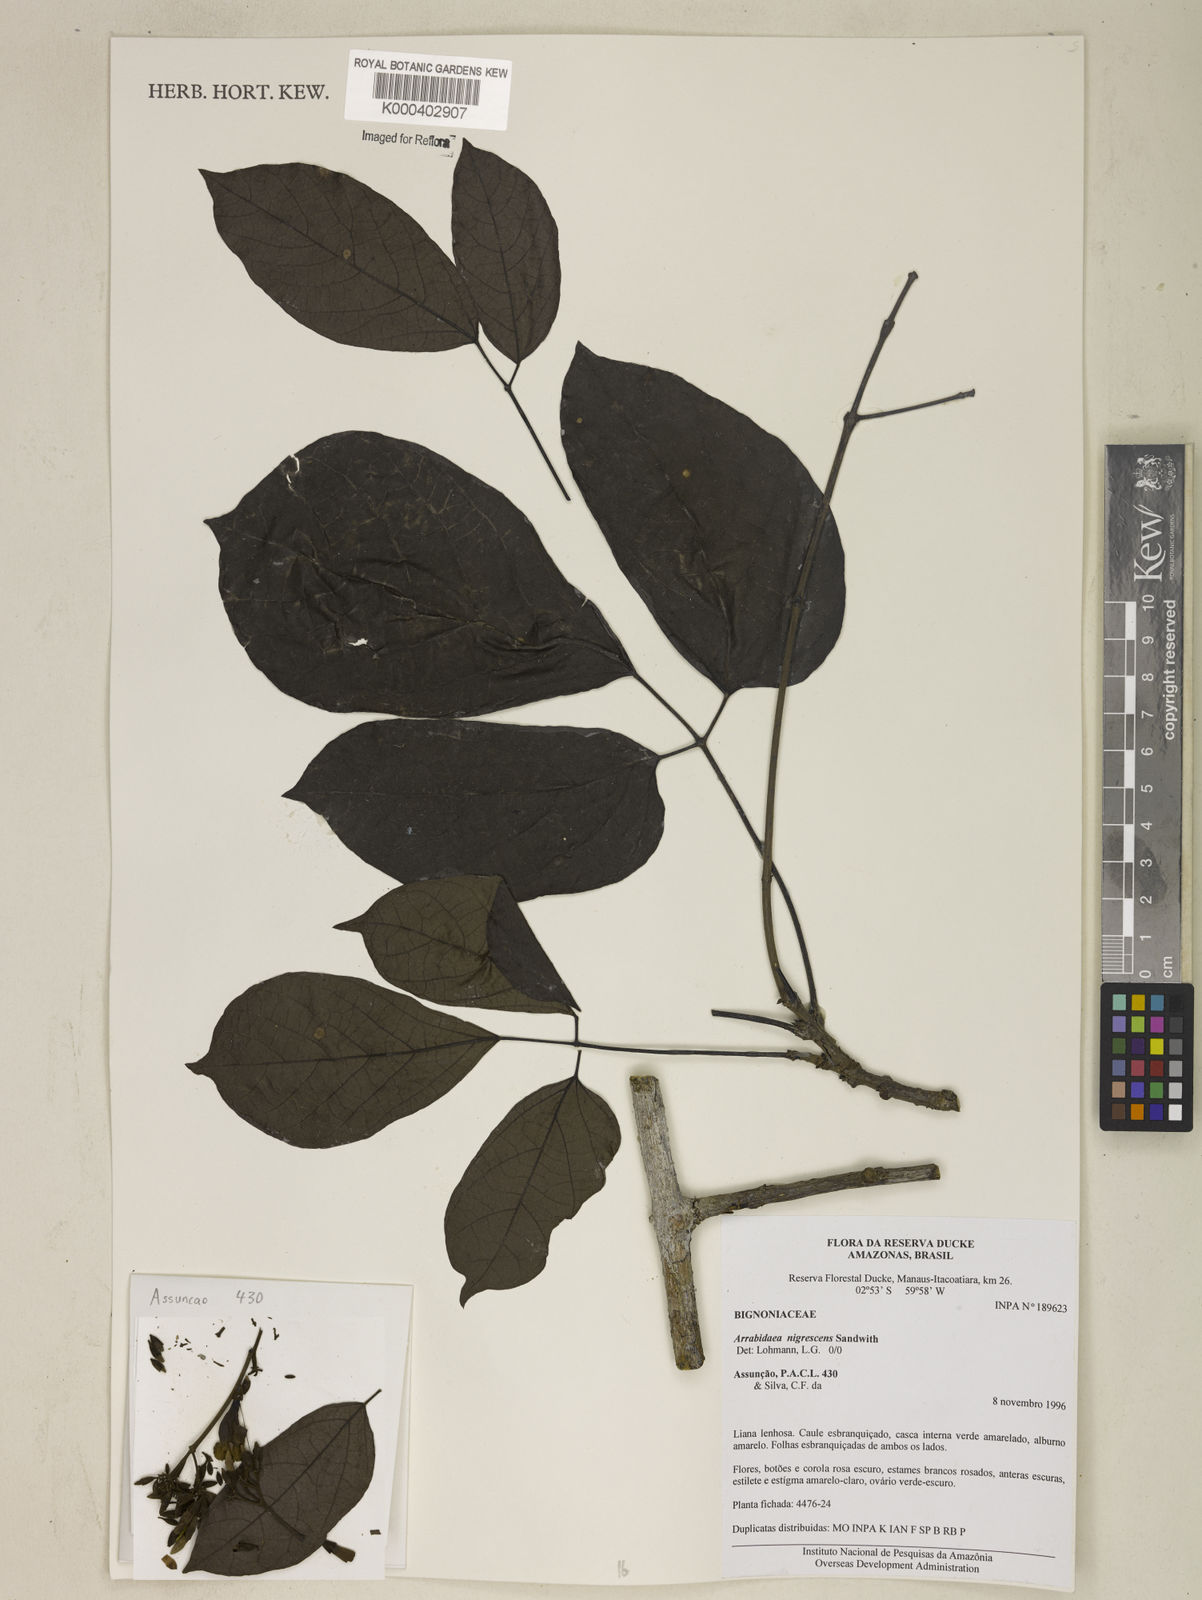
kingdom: Plantae
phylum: Tracheophyta
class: Magnoliopsida
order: Lamiales
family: Bignoniaceae
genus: Fridericia
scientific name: Fridericia nigrescens
